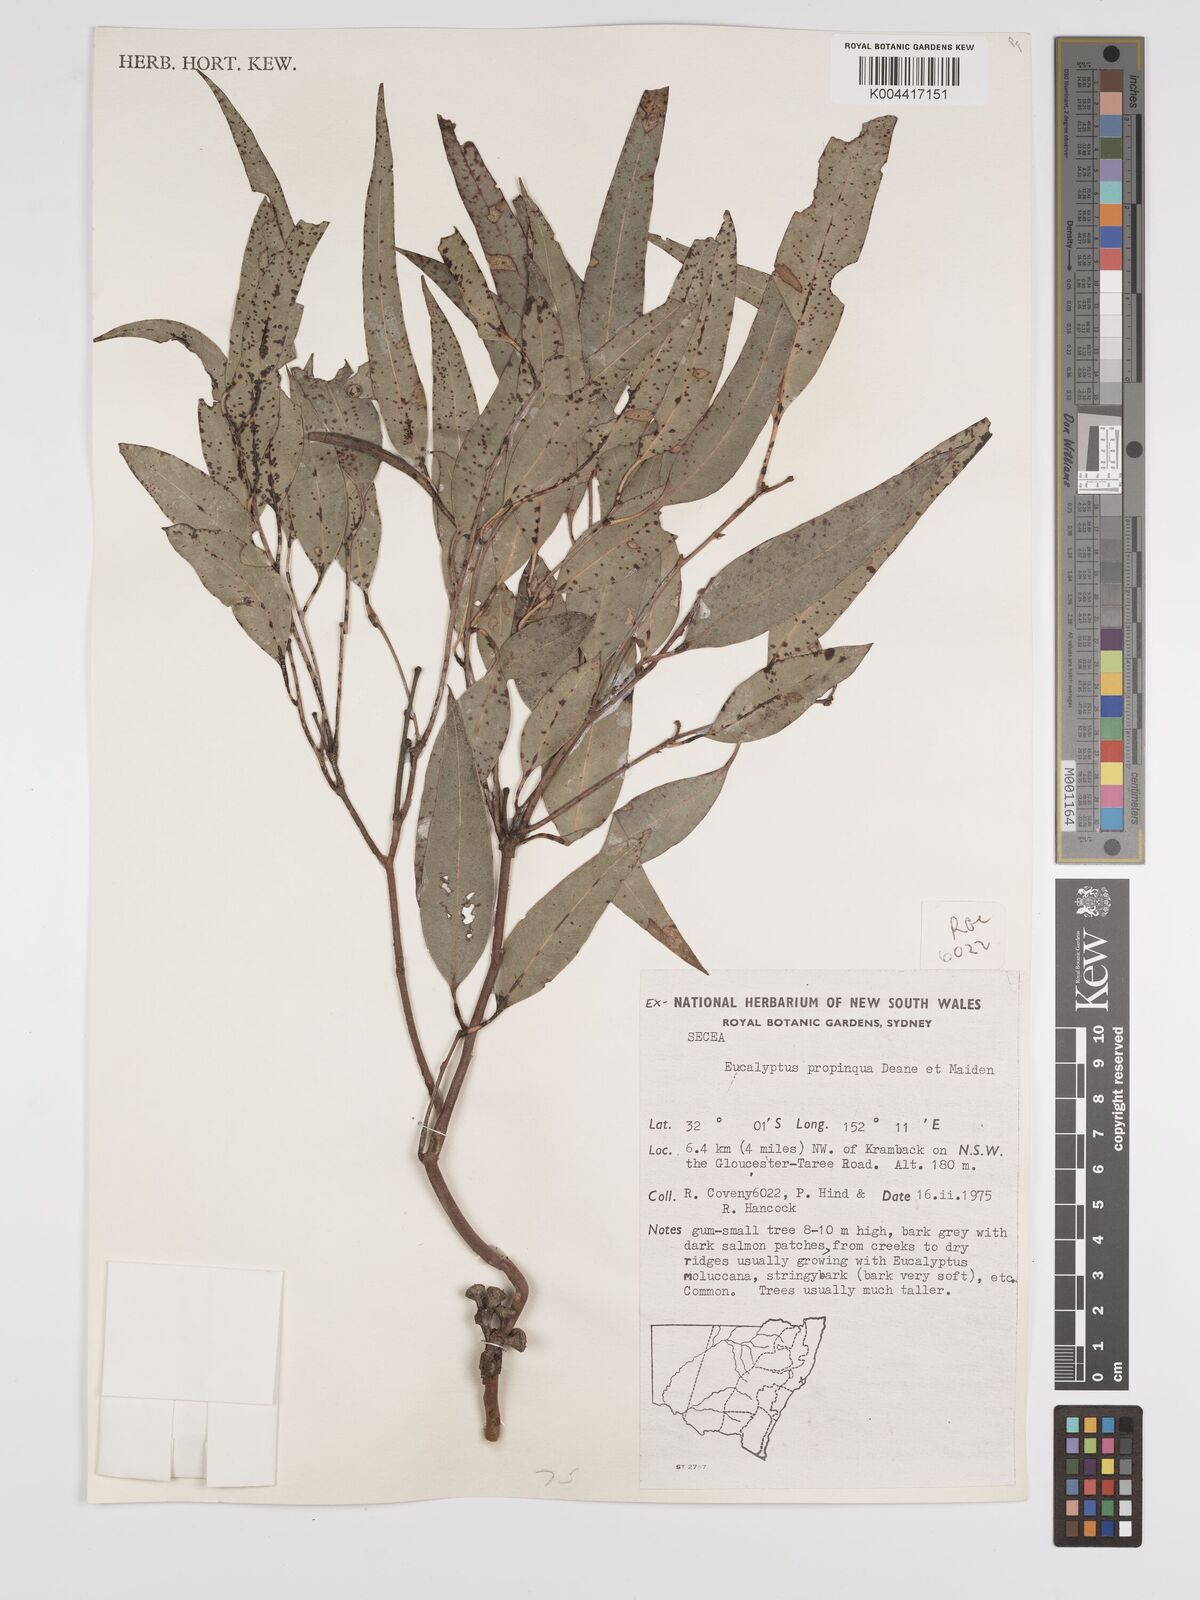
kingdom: Plantae
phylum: Tracheophyta
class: Magnoliopsida
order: Myrtales
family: Myrtaceae
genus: Eucalyptus
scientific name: Eucalyptus propinqua
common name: Grey-gum
